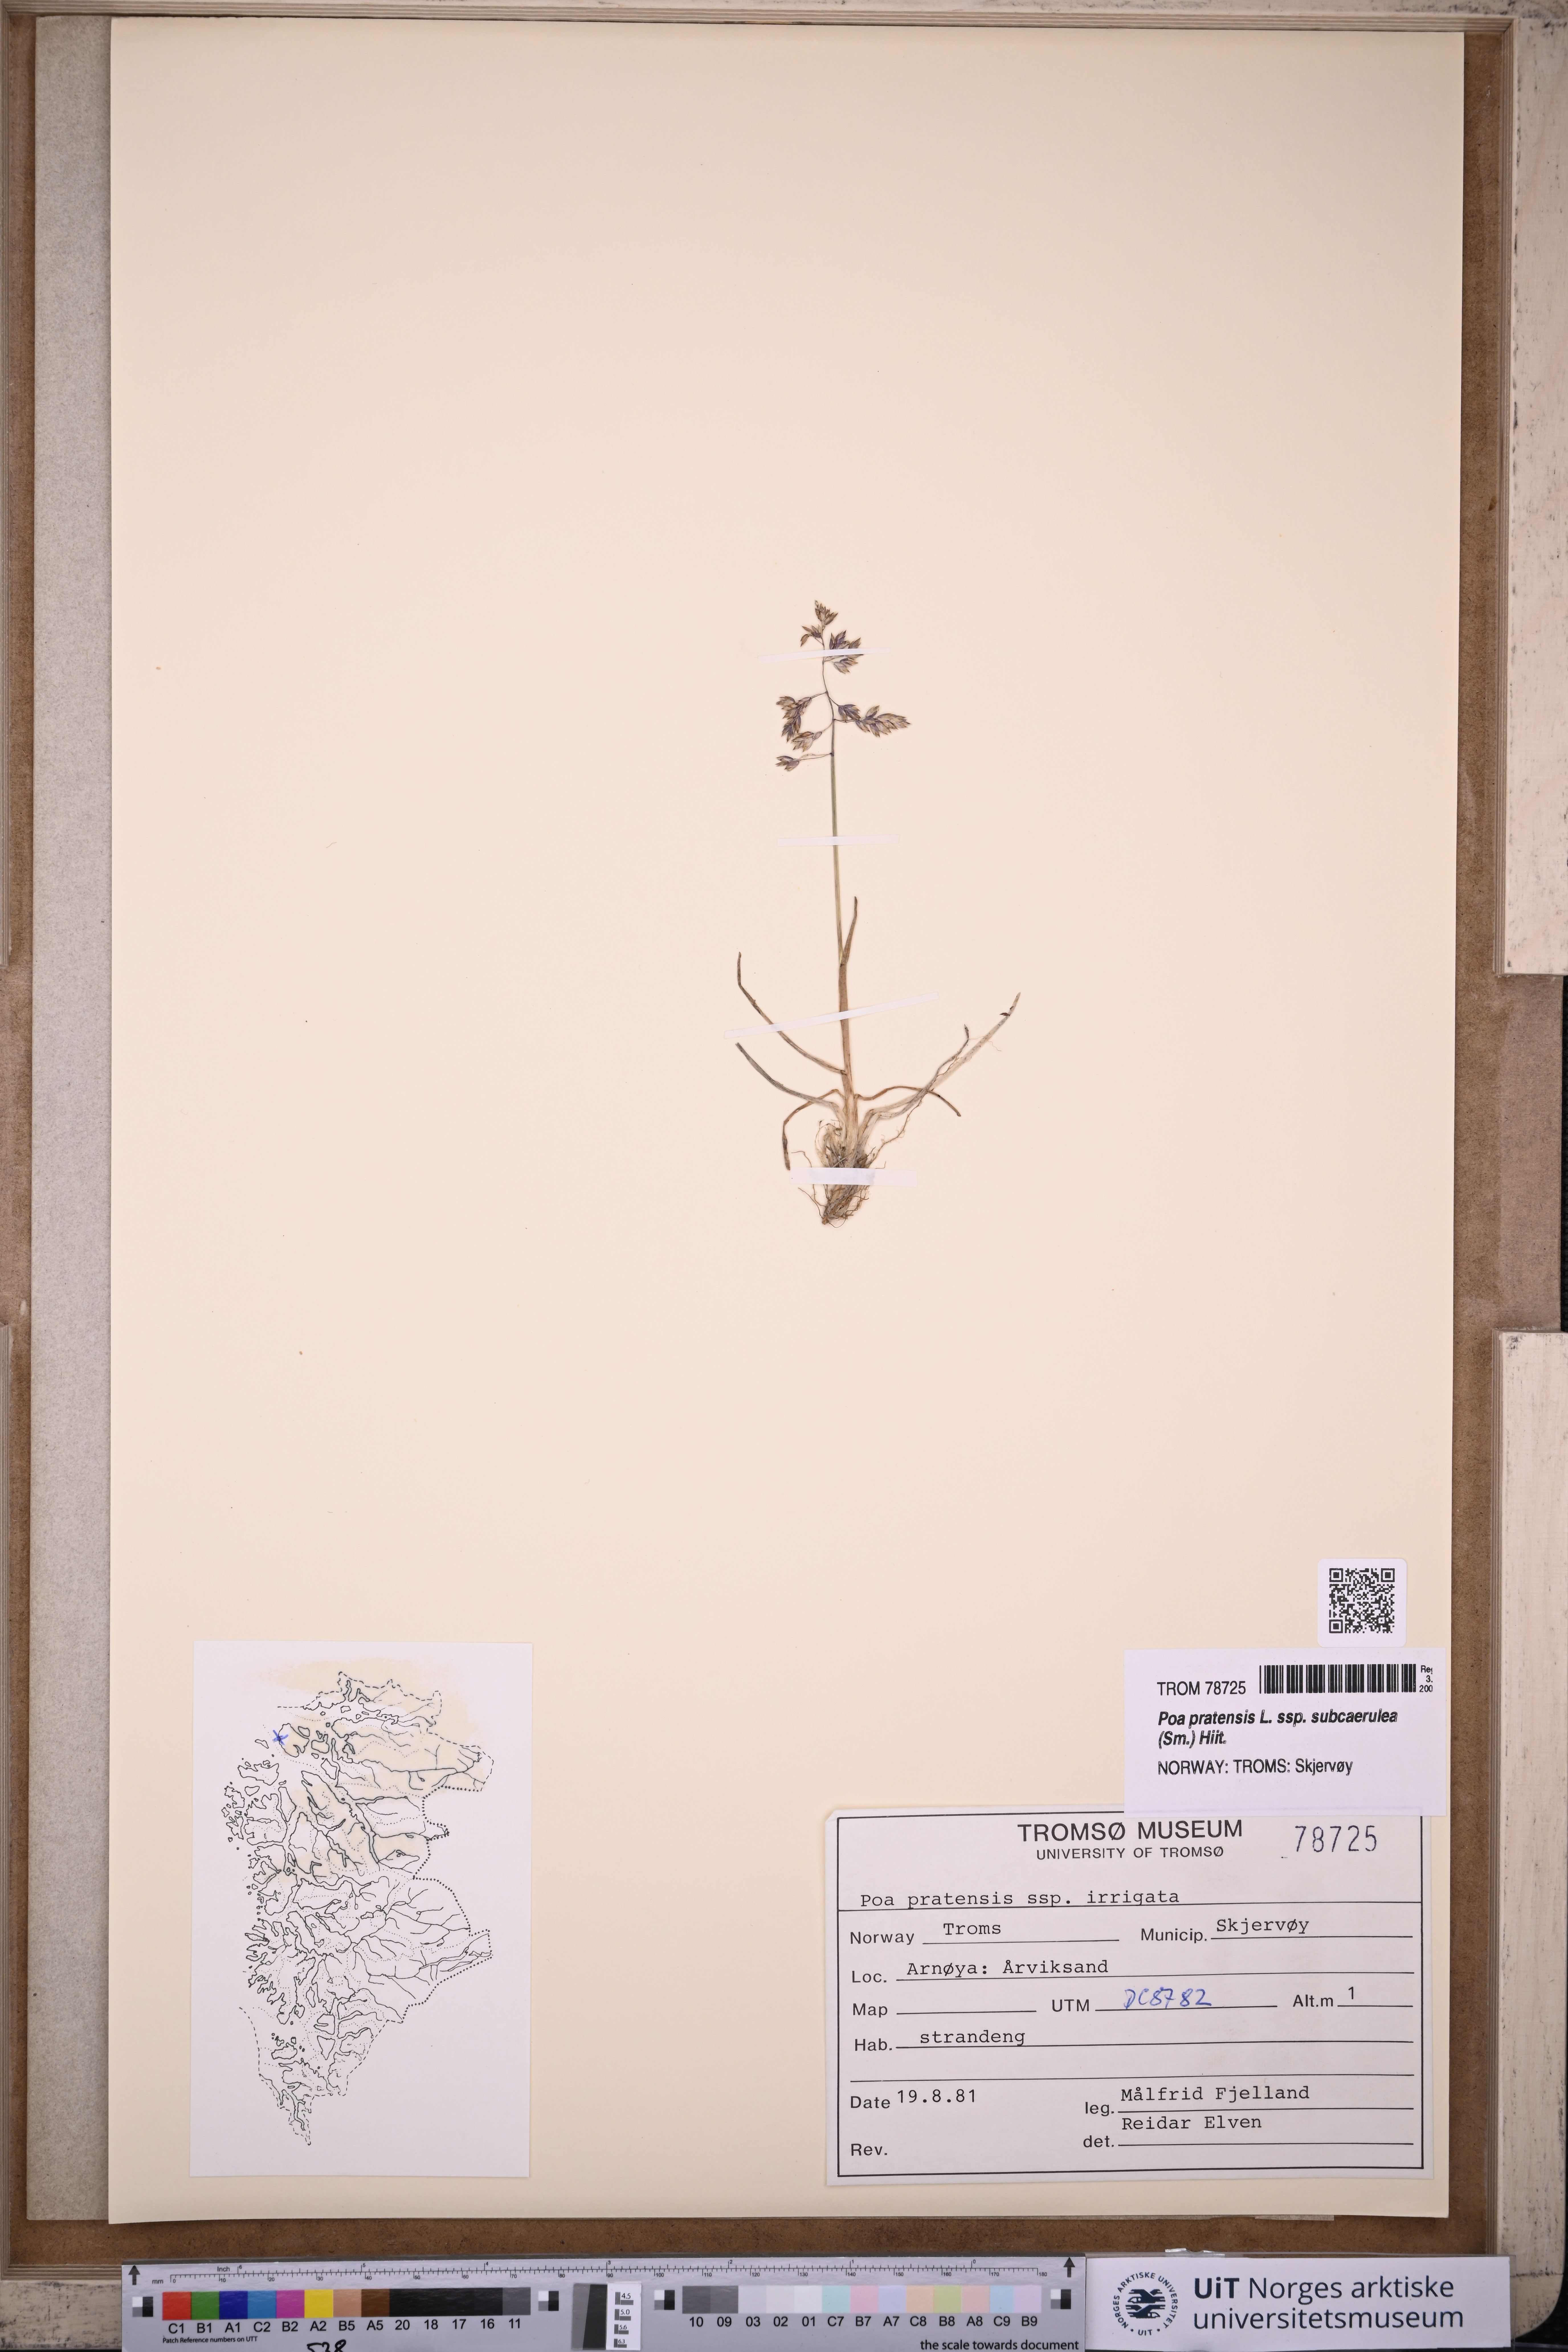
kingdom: Plantae
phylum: Tracheophyta
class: Liliopsida
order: Poales
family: Poaceae
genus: Poa
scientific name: Poa humilis
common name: Spreading meadow-grass
